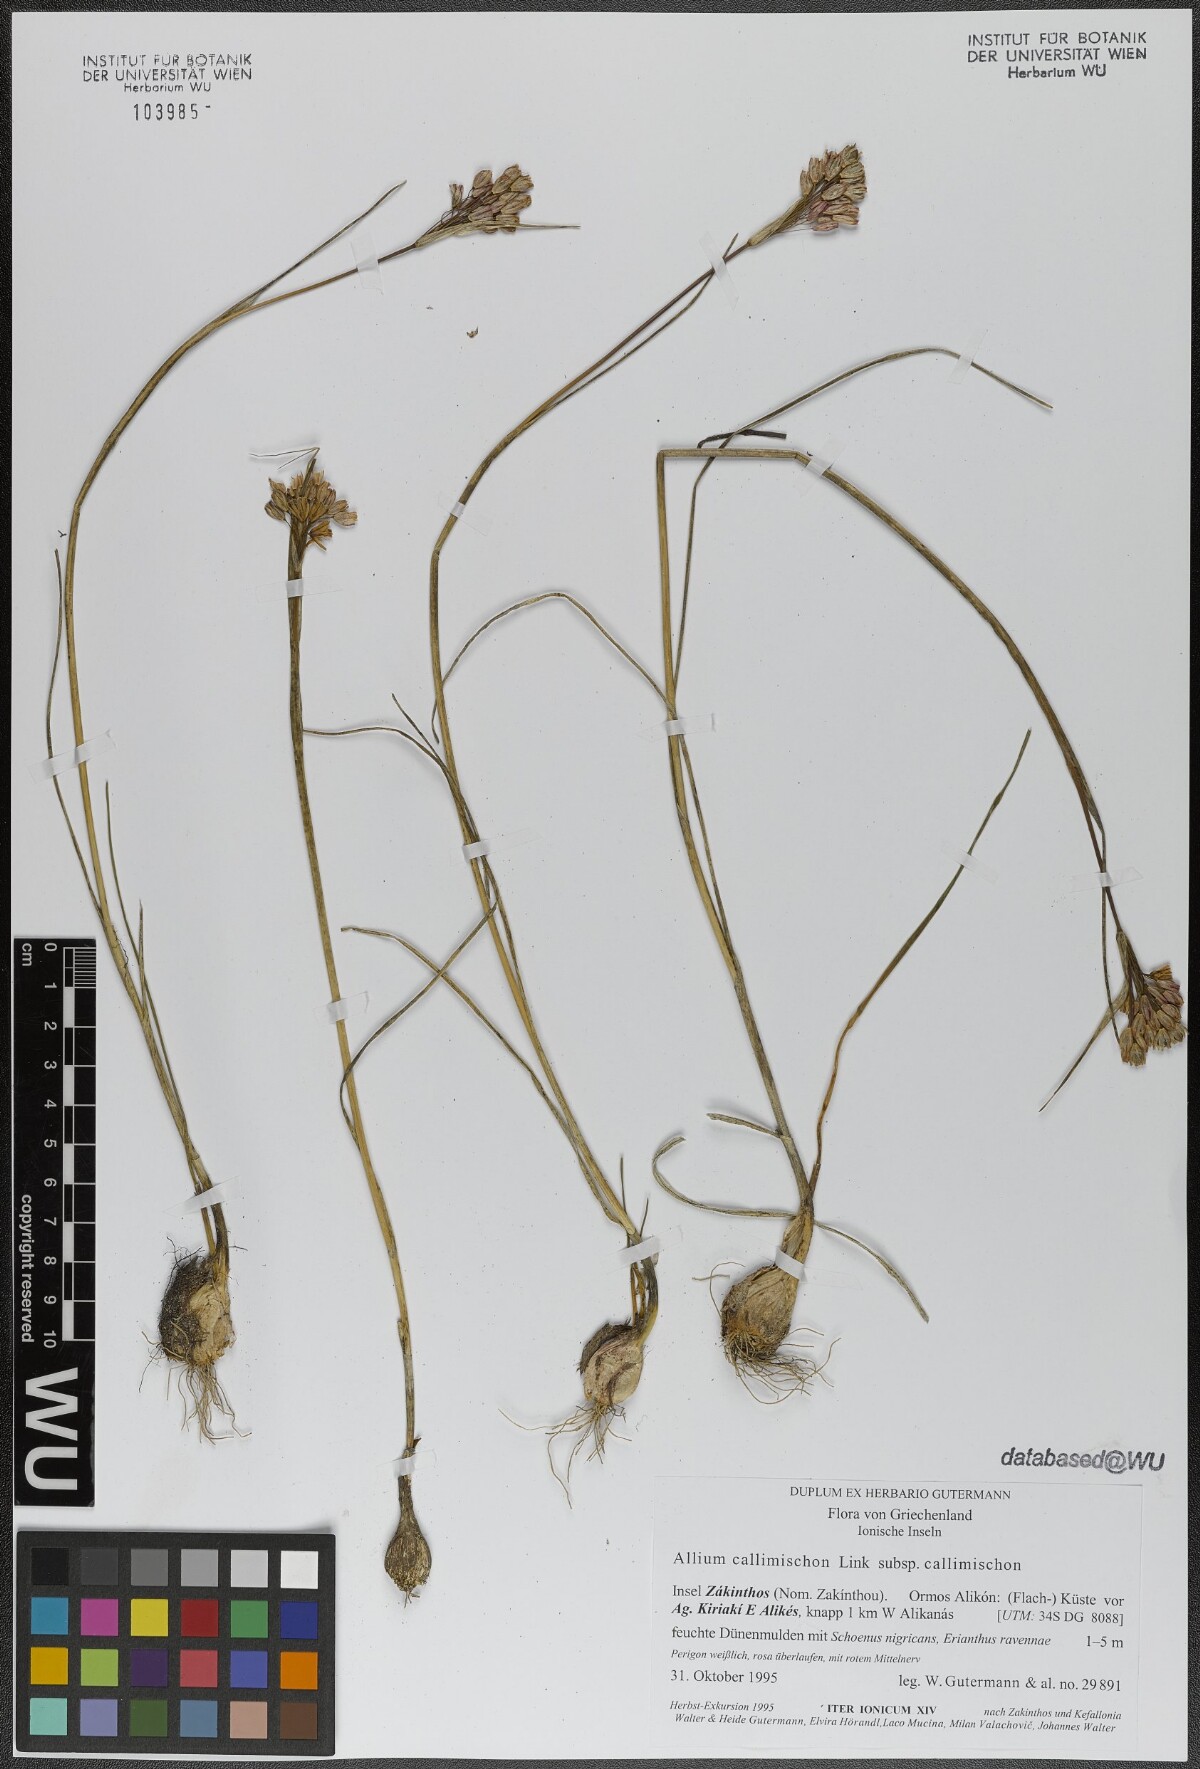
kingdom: Plantae
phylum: Tracheophyta
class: Liliopsida
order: Asparagales
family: Amaryllidaceae
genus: Allium
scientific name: Allium callimischon
